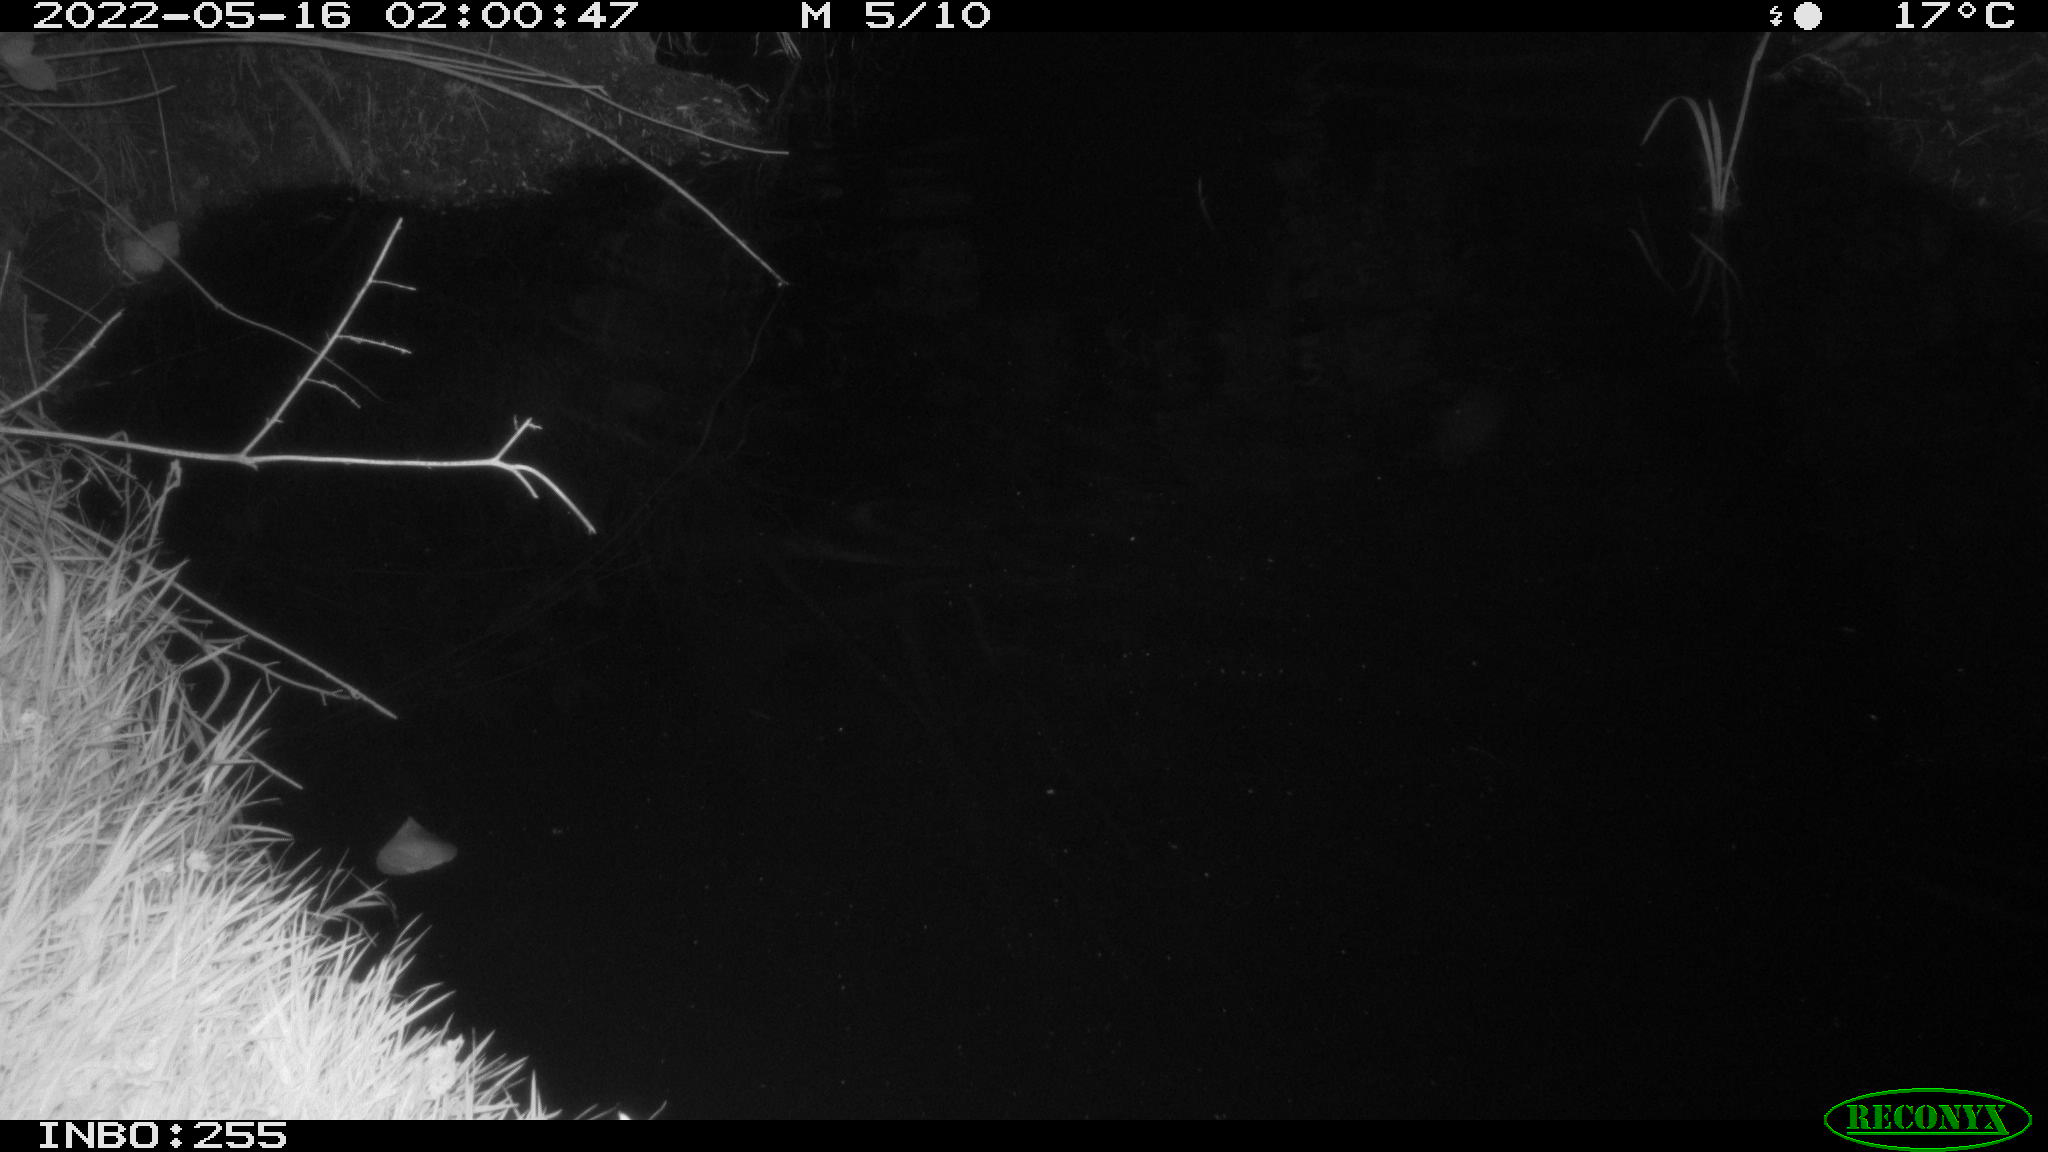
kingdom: Animalia
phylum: Chordata
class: Aves
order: Anseriformes
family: Anatidae
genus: Anas
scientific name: Anas platyrhynchos
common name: Mallard
